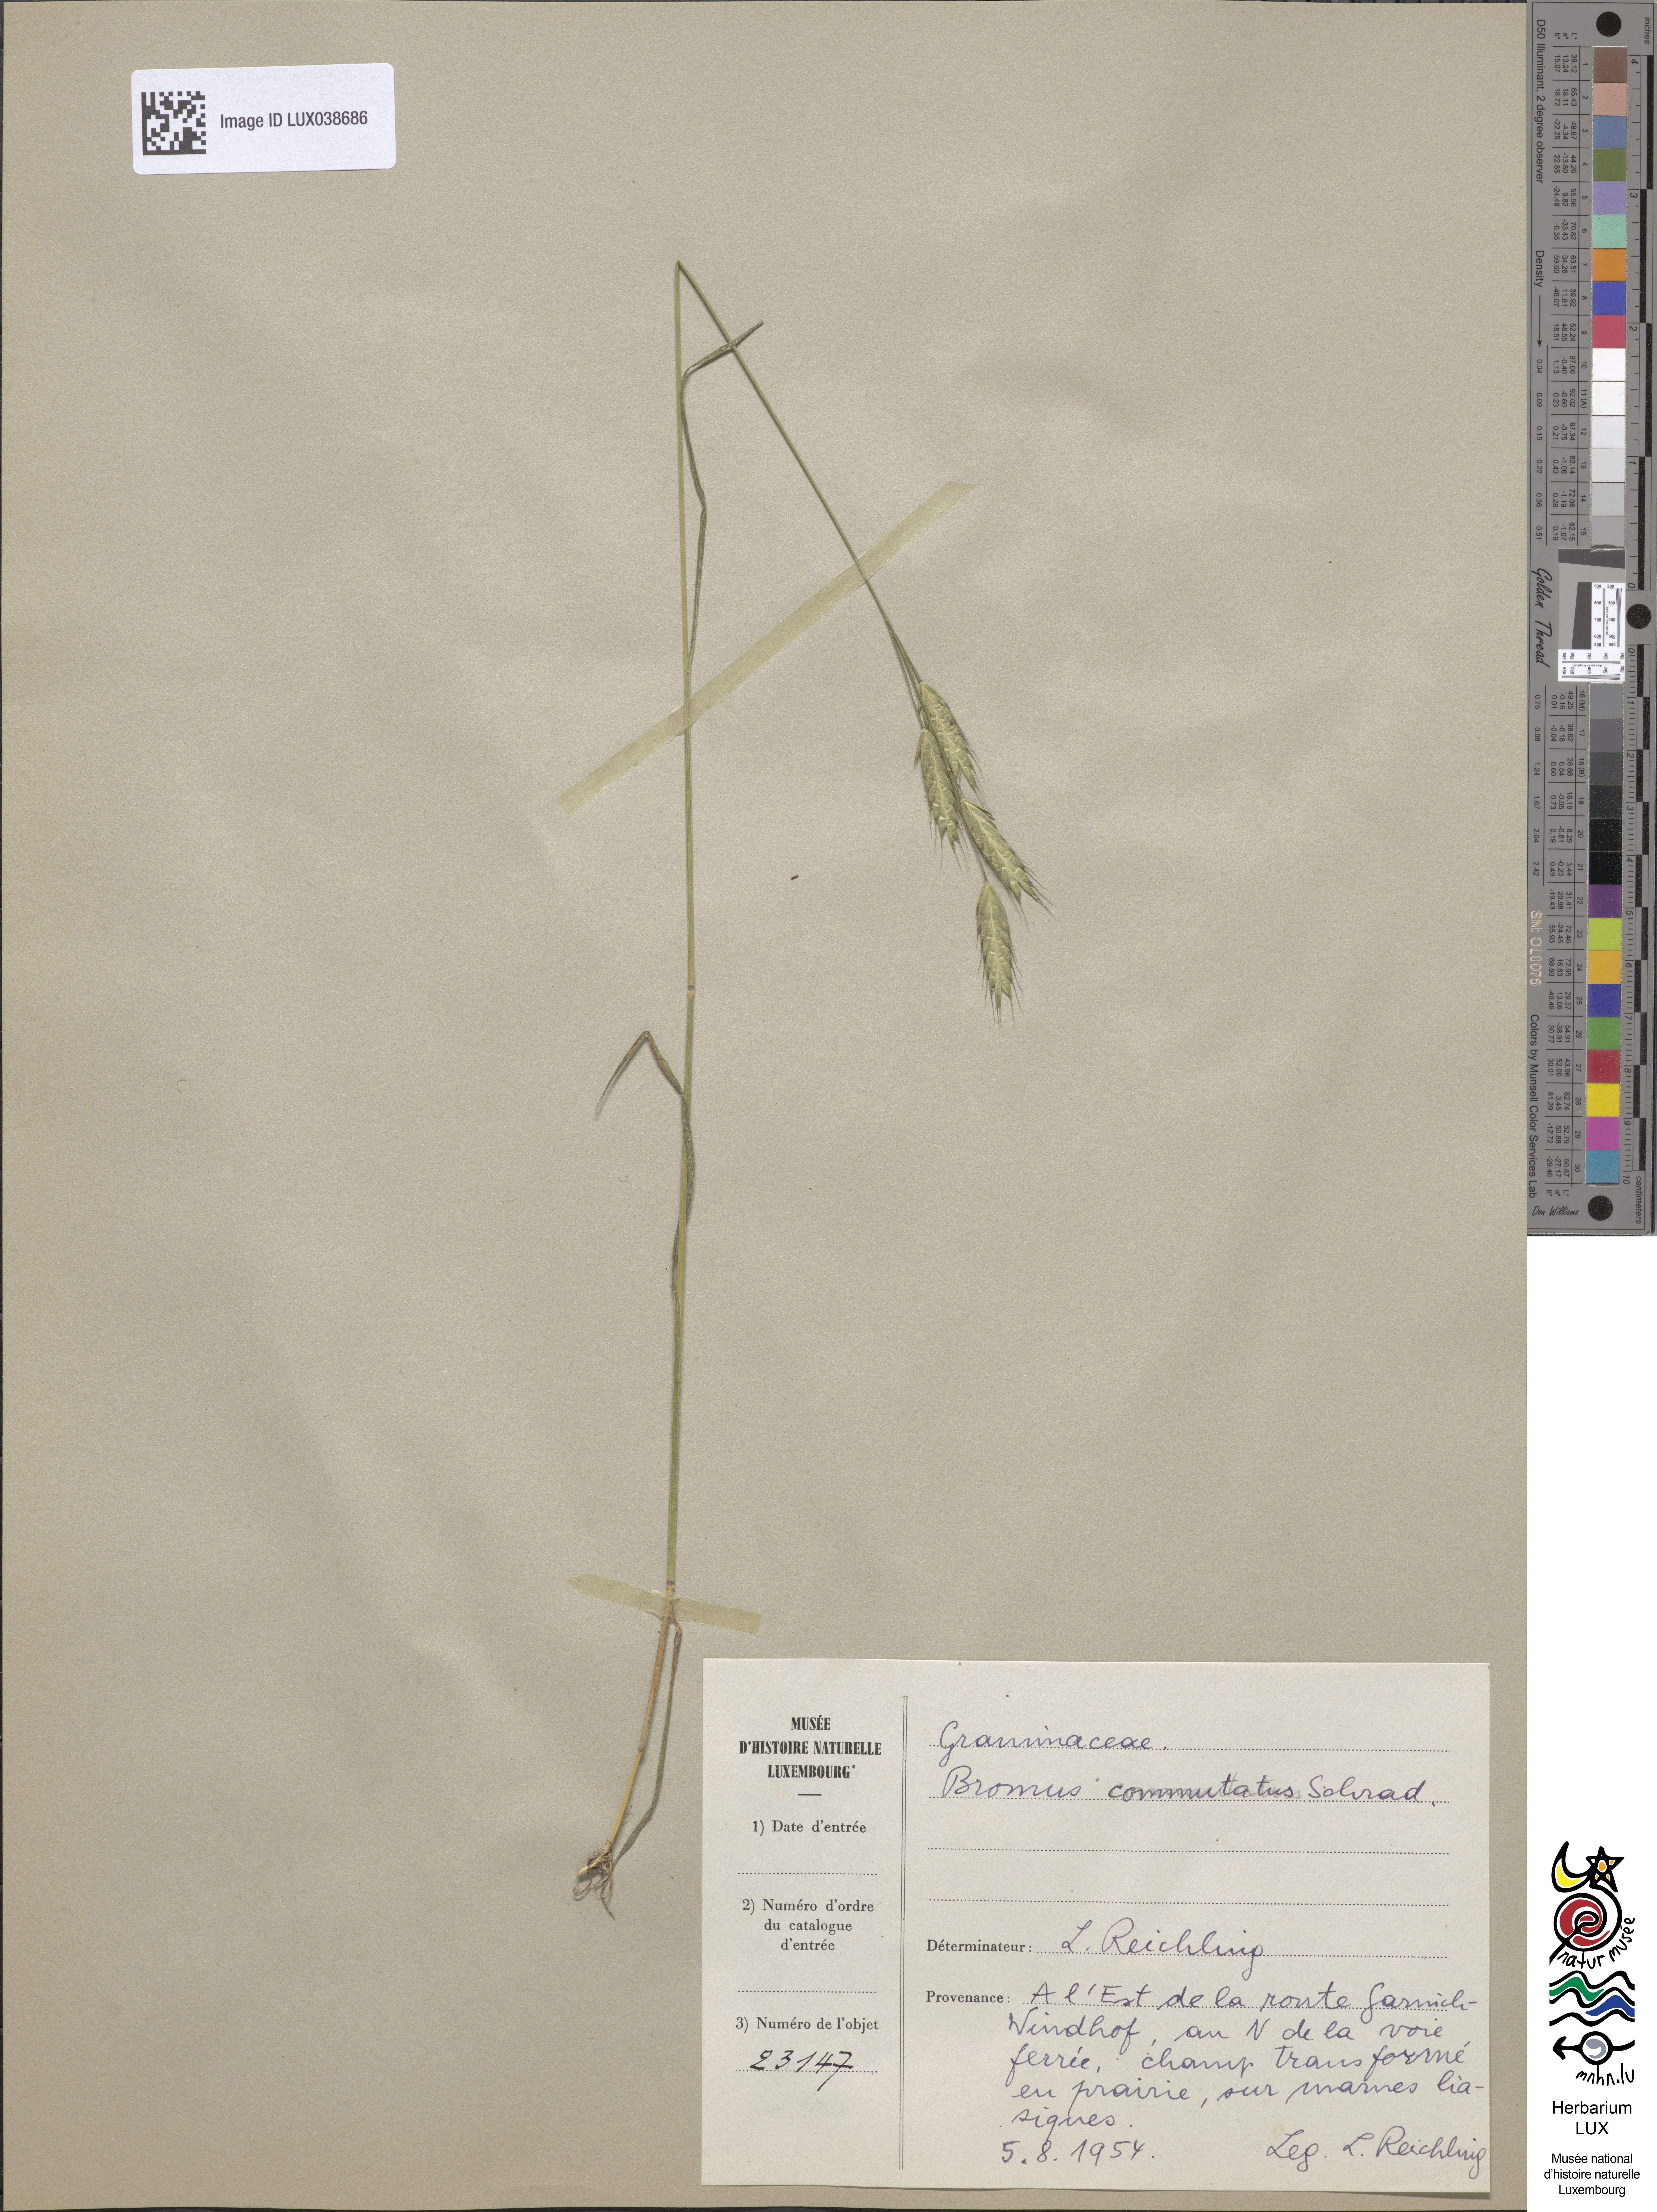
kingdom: Plantae
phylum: Tracheophyta
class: Liliopsida
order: Poales
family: Poaceae
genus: Bromus
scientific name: Bromus commutatus
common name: Meadow brome
